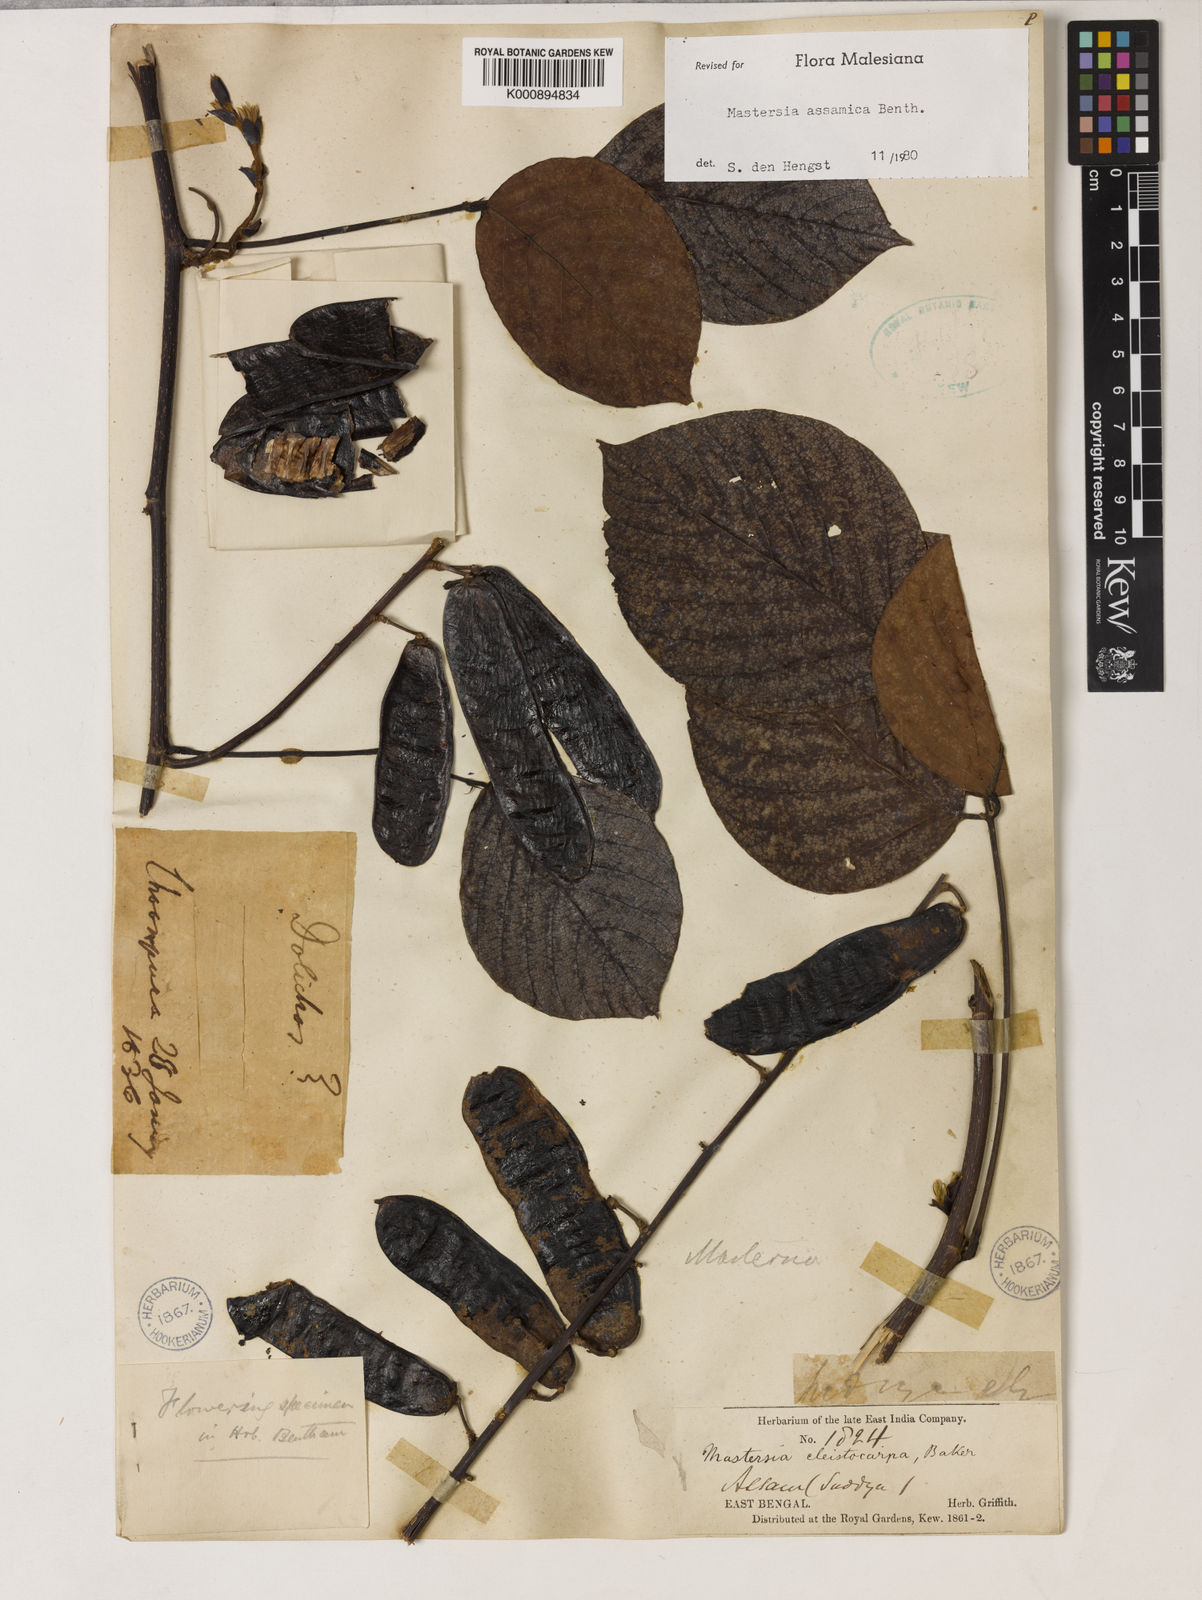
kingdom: Plantae
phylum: Tracheophyta
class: Magnoliopsida
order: Fabales
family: Fabaceae
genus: Mastersia
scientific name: Mastersia assamica
